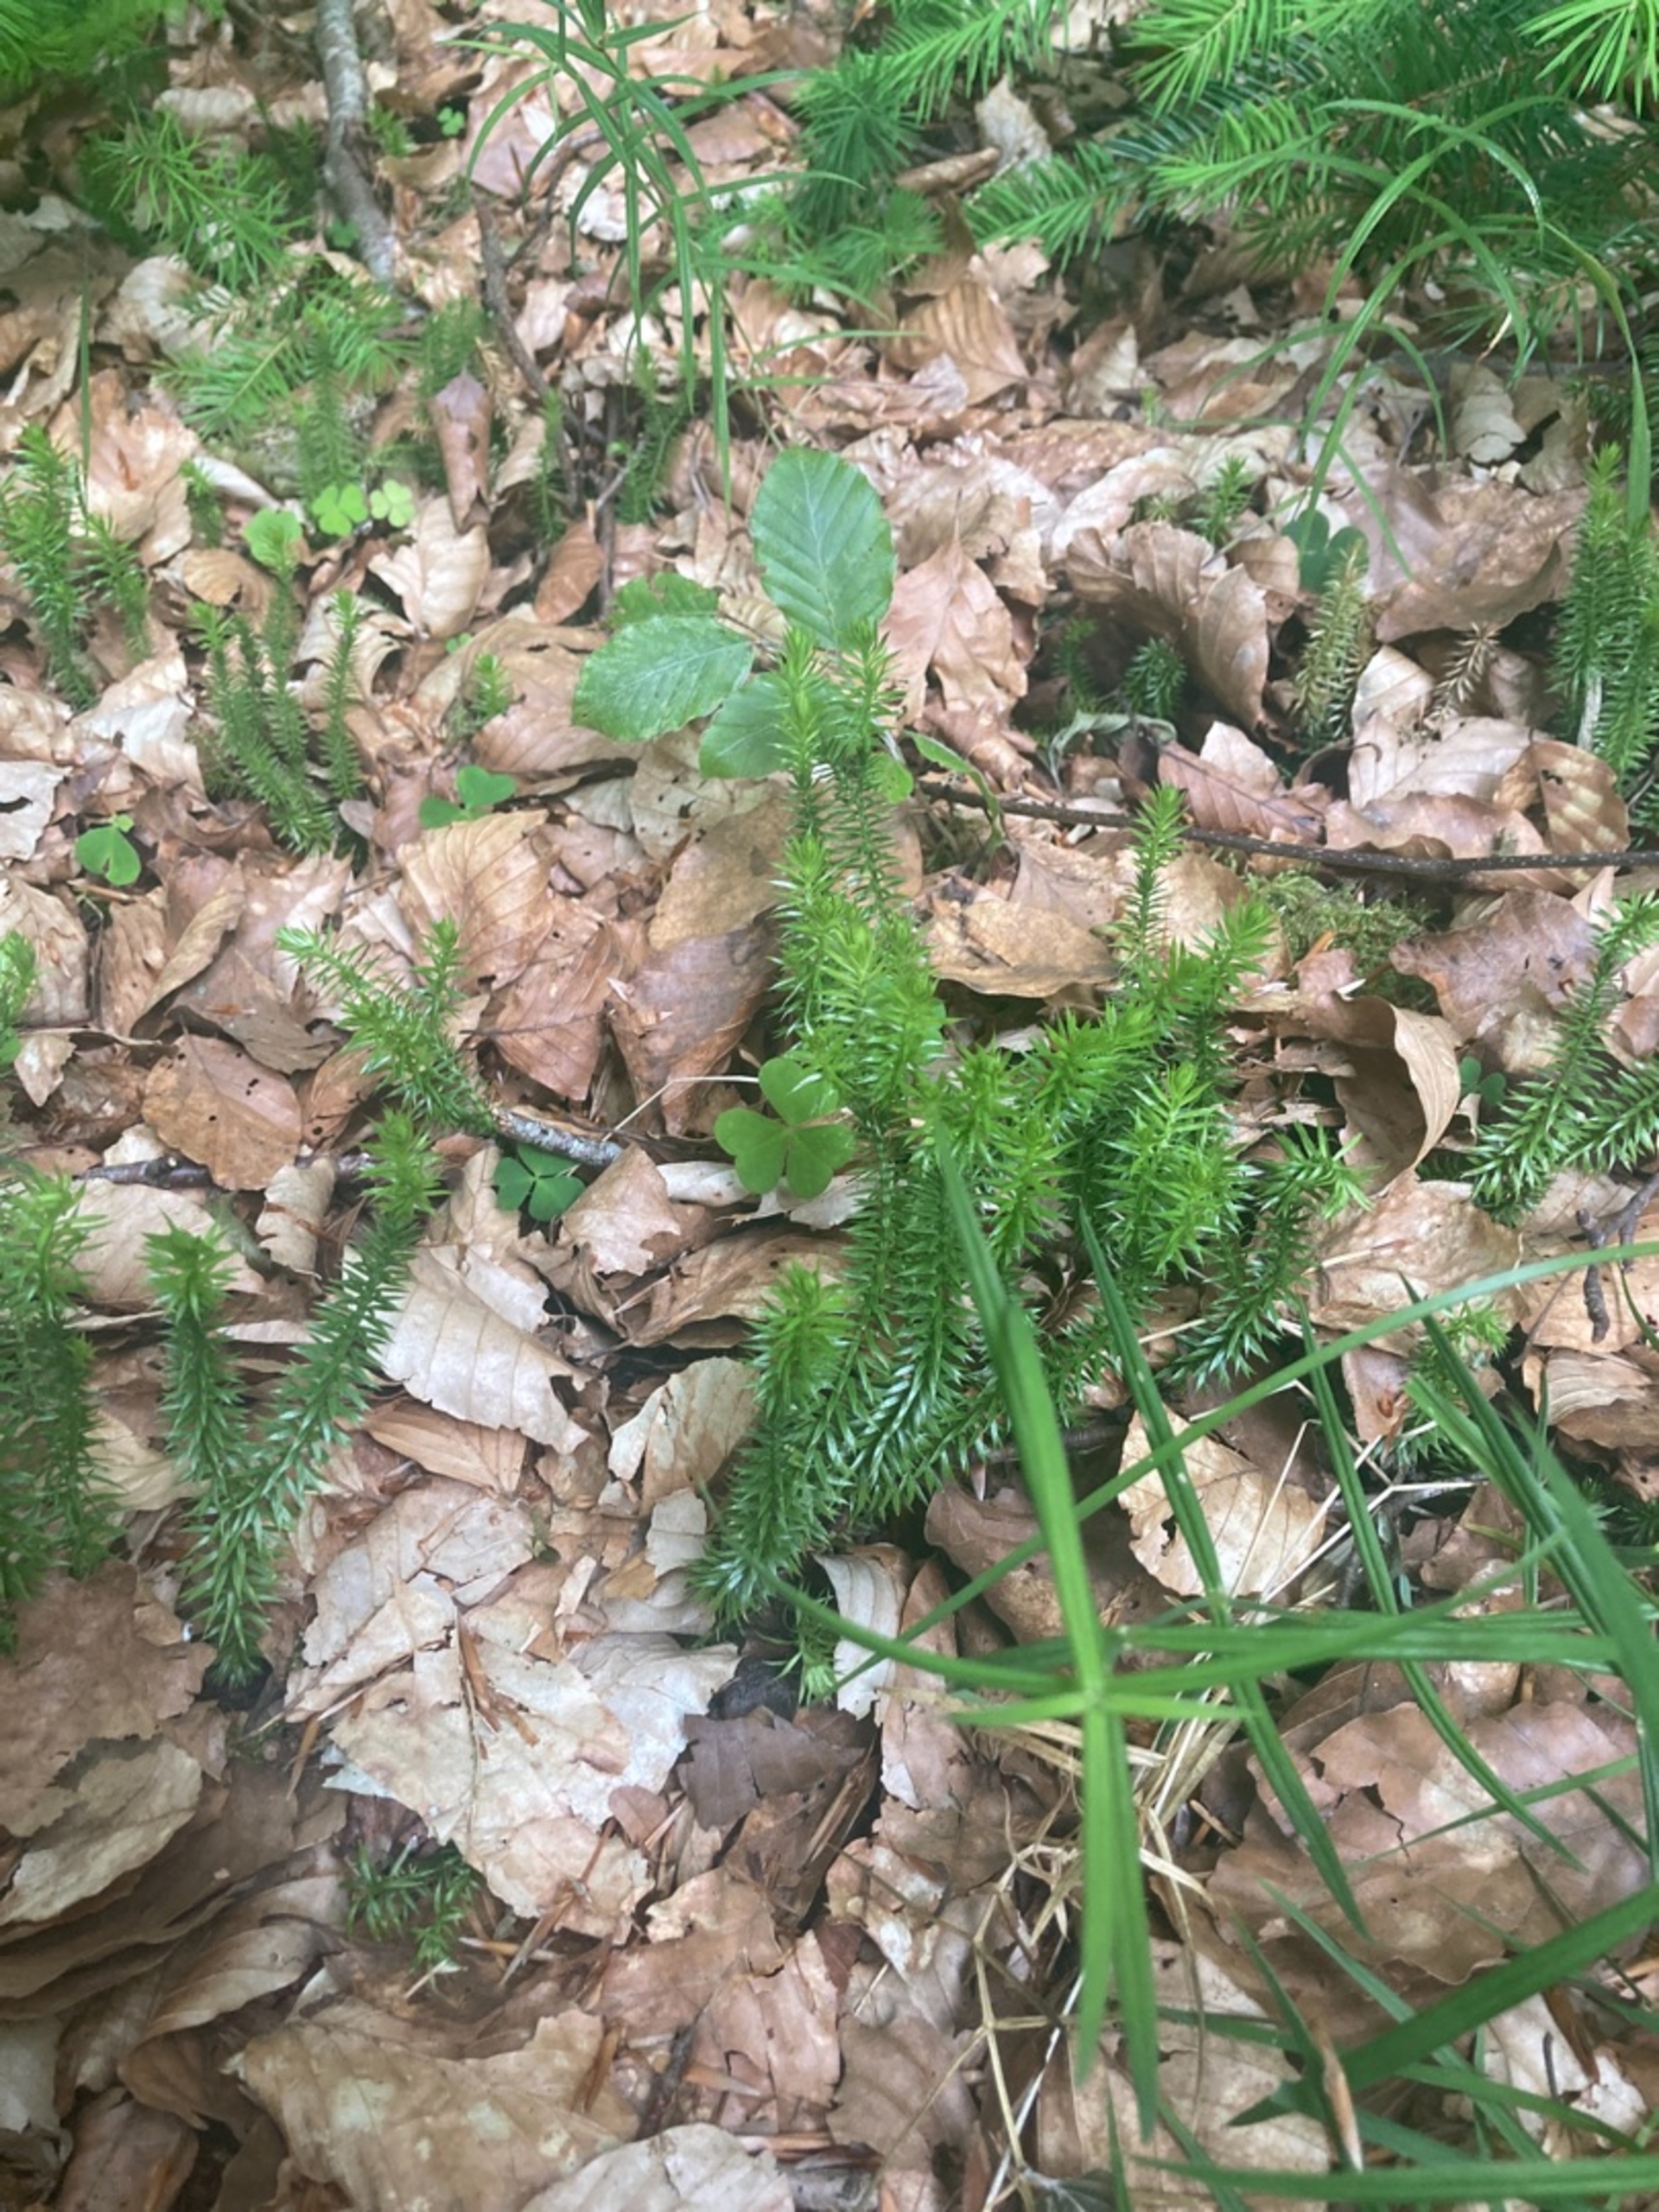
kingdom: Plantae
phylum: Tracheophyta
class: Lycopodiopsida
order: Lycopodiales
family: Lycopodiaceae
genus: Spinulum
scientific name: Spinulum annotinum
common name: Femradet ulvefod
